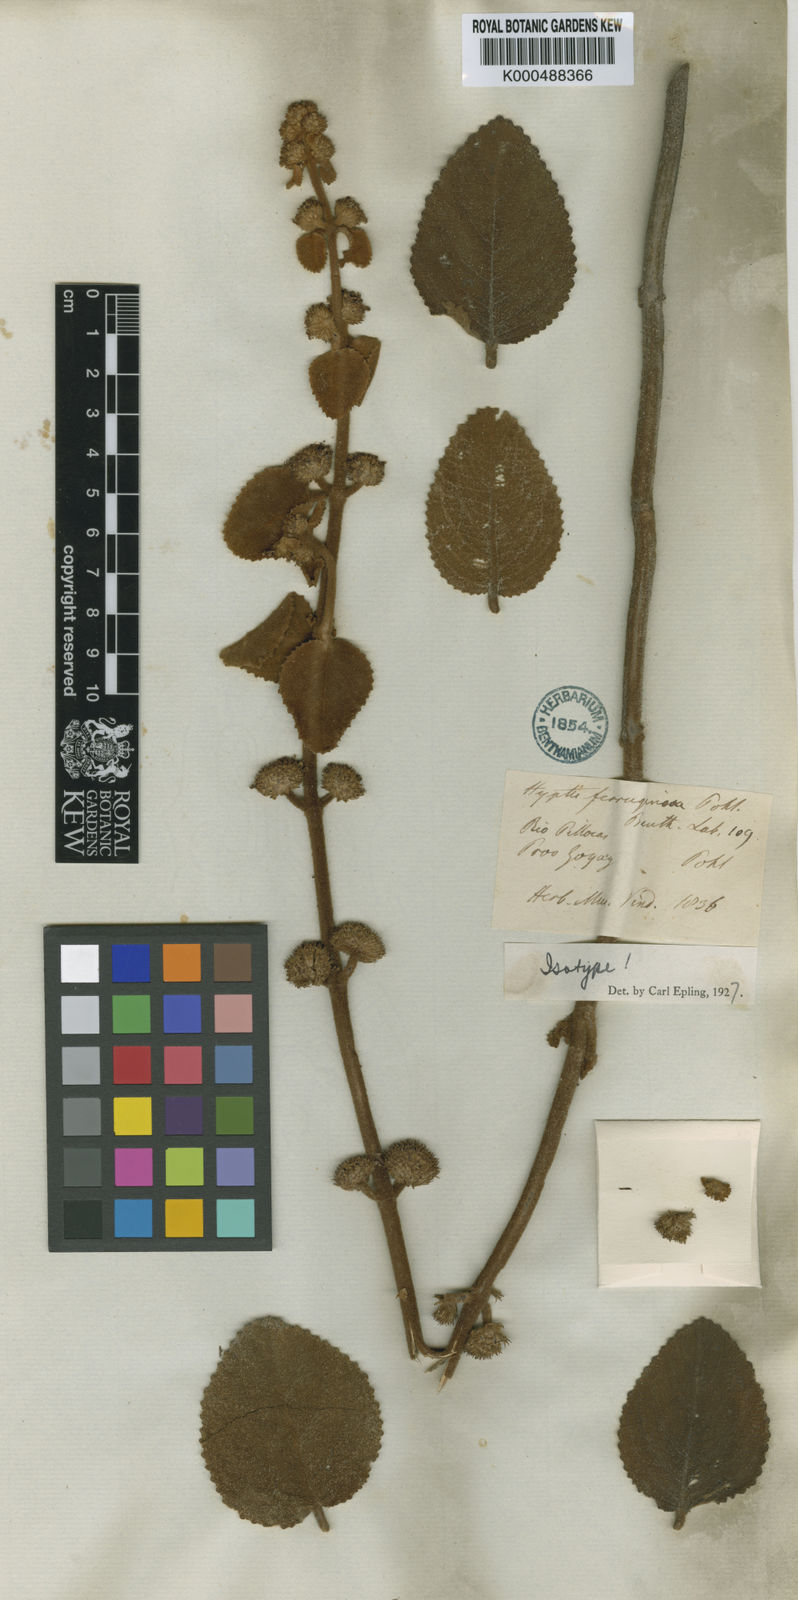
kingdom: Plantae
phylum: Tracheophyta
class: Magnoliopsida
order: Lamiales
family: Lamiaceae
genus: Hyptis
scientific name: Hyptis ferruginosa
